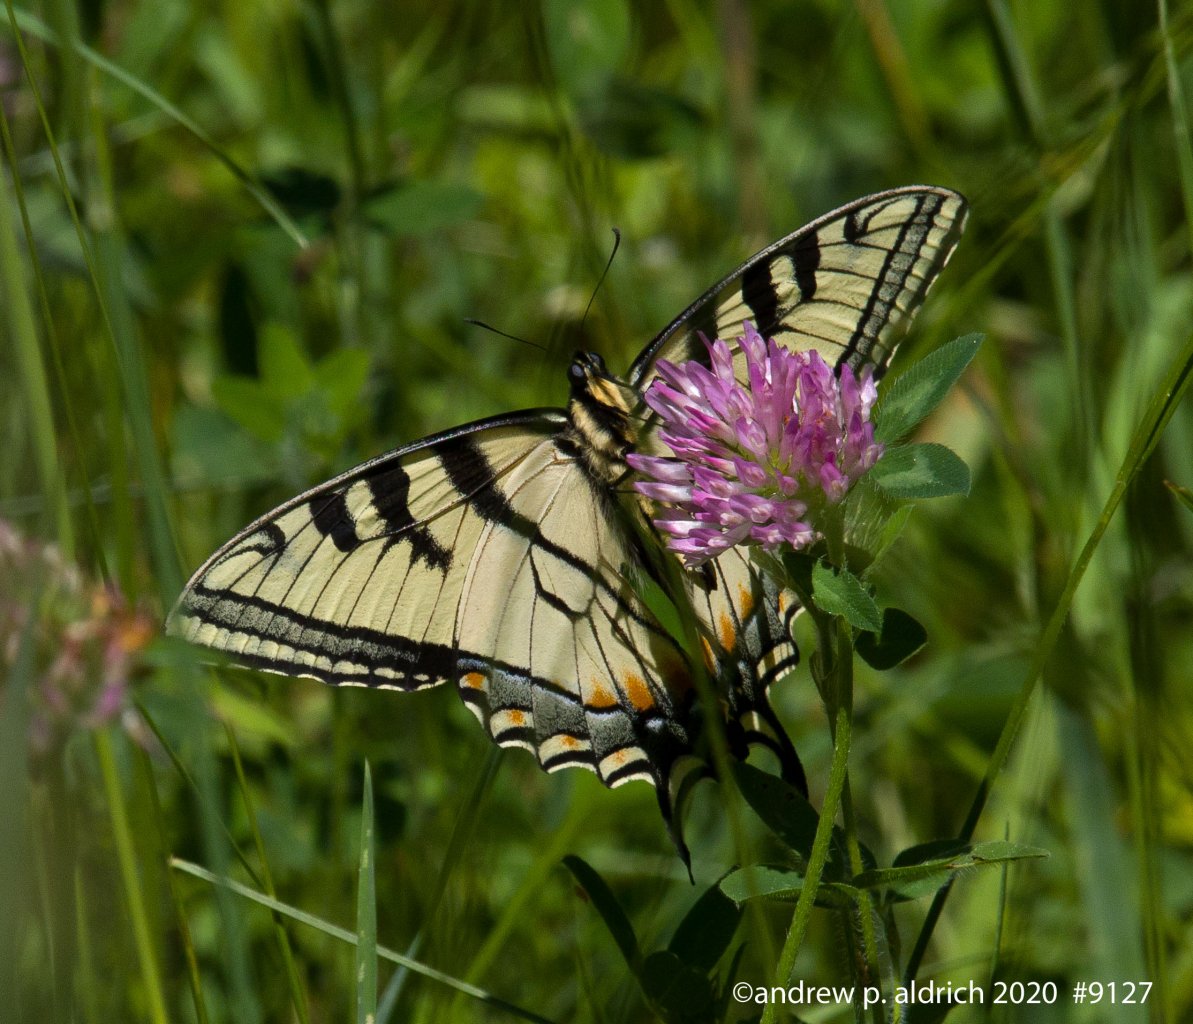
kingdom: Animalia
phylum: Arthropoda
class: Insecta
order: Lepidoptera
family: Papilionidae
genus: Pterourus
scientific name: Pterourus canadensis
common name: Canadian Tiger Swallowtail
